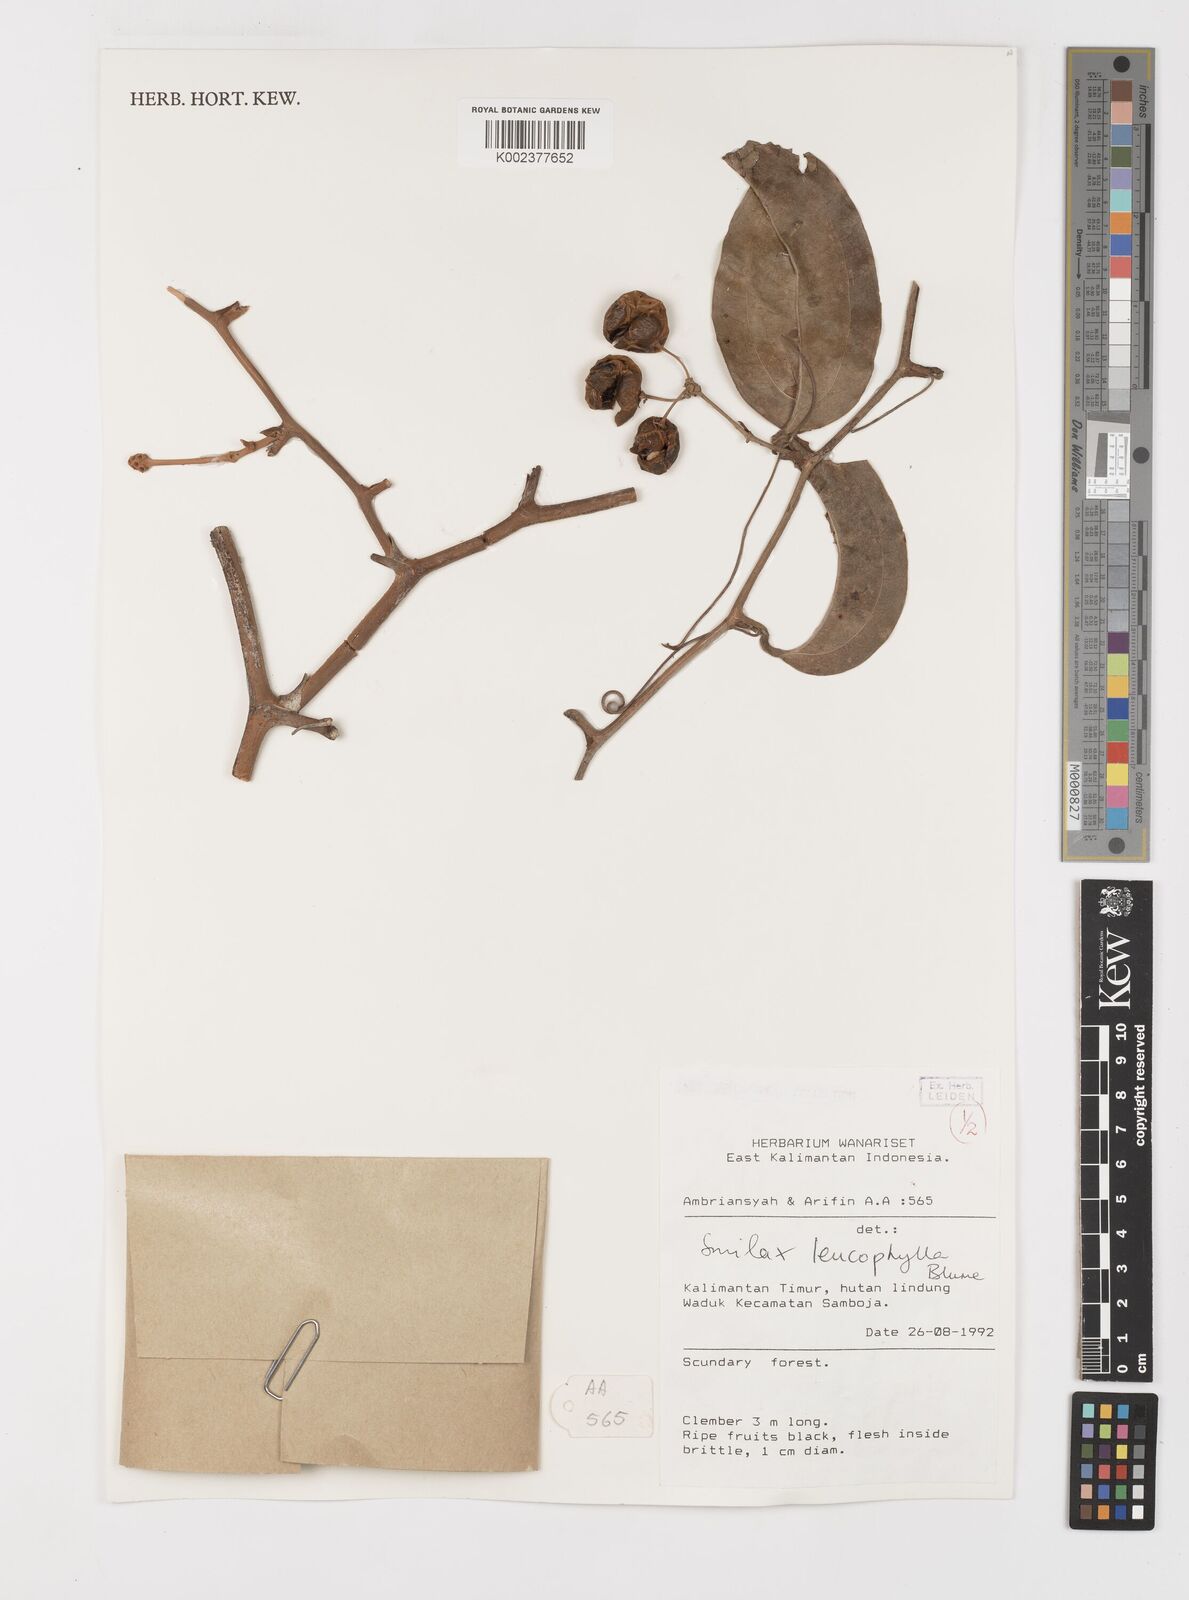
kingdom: Plantae
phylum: Tracheophyta
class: Liliopsida
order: Liliales
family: Smilacaceae
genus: Smilax
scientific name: Smilax leucophylla
